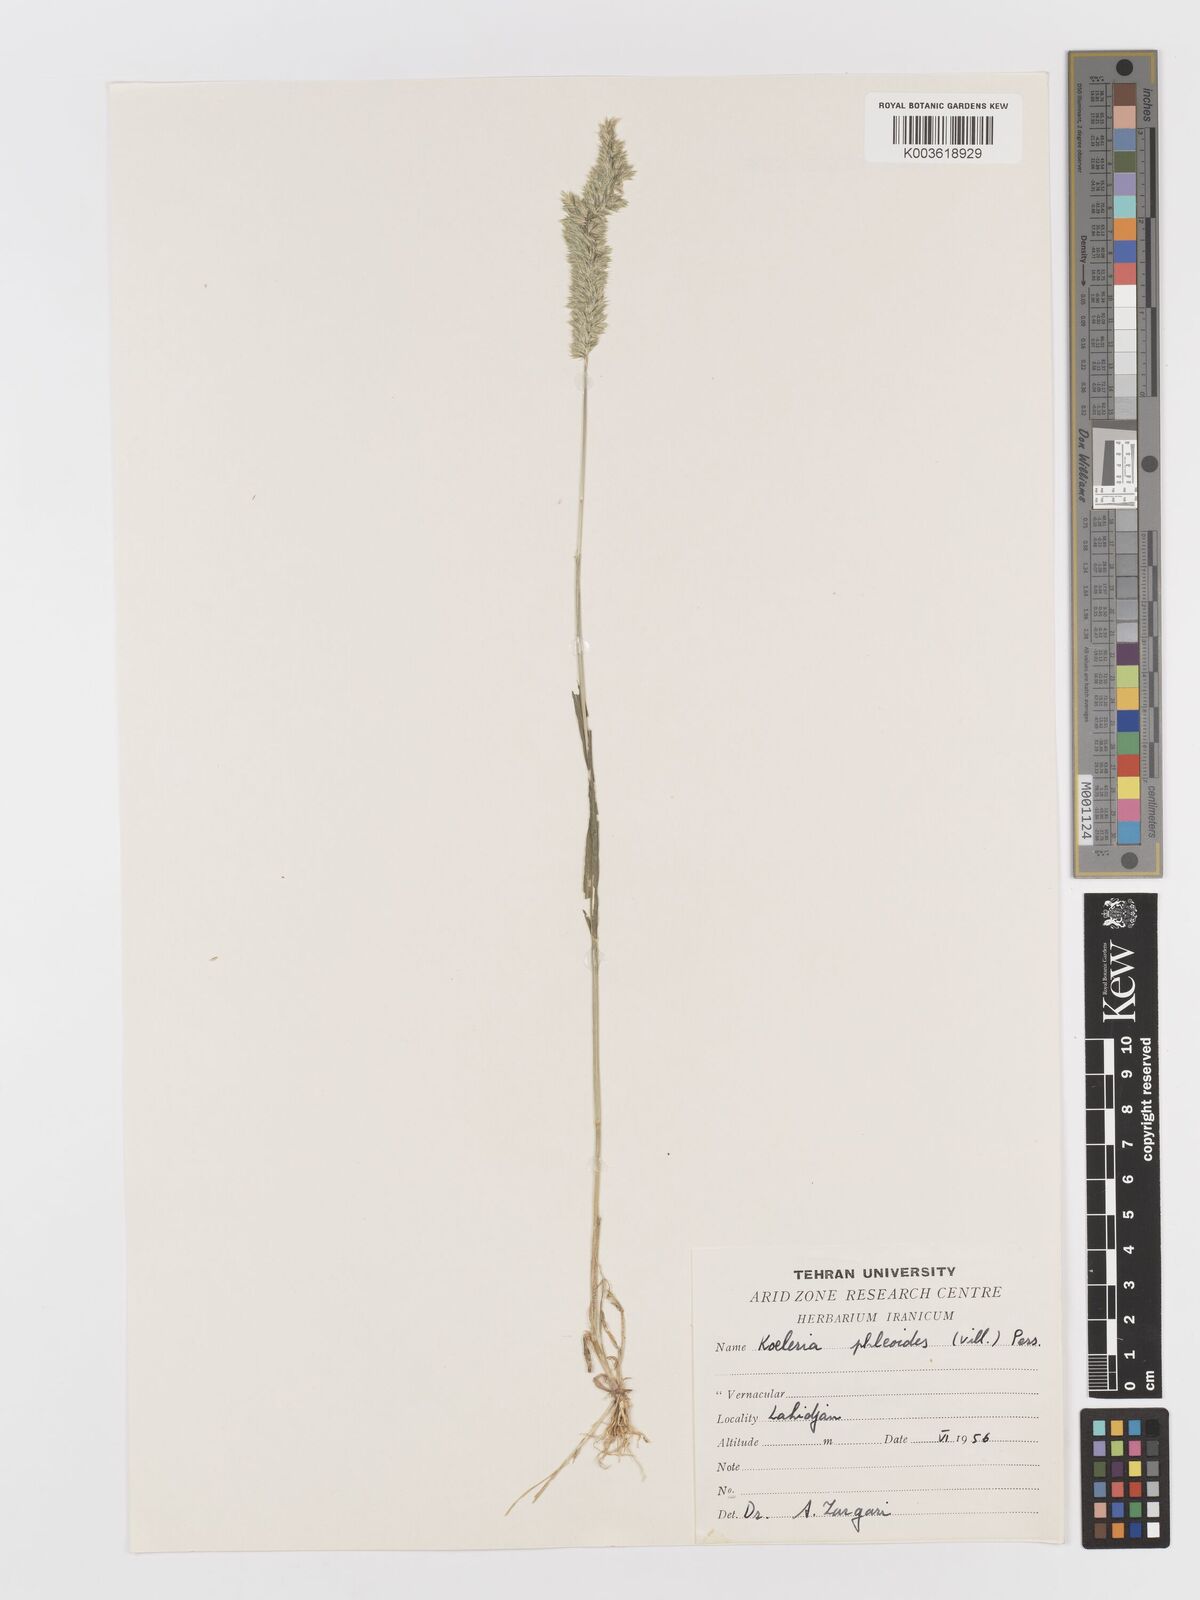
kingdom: Plantae
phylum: Tracheophyta
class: Liliopsida
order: Poales
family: Poaceae
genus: Rostraria
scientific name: Rostraria cristata
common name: Mediterranean hair-grass
